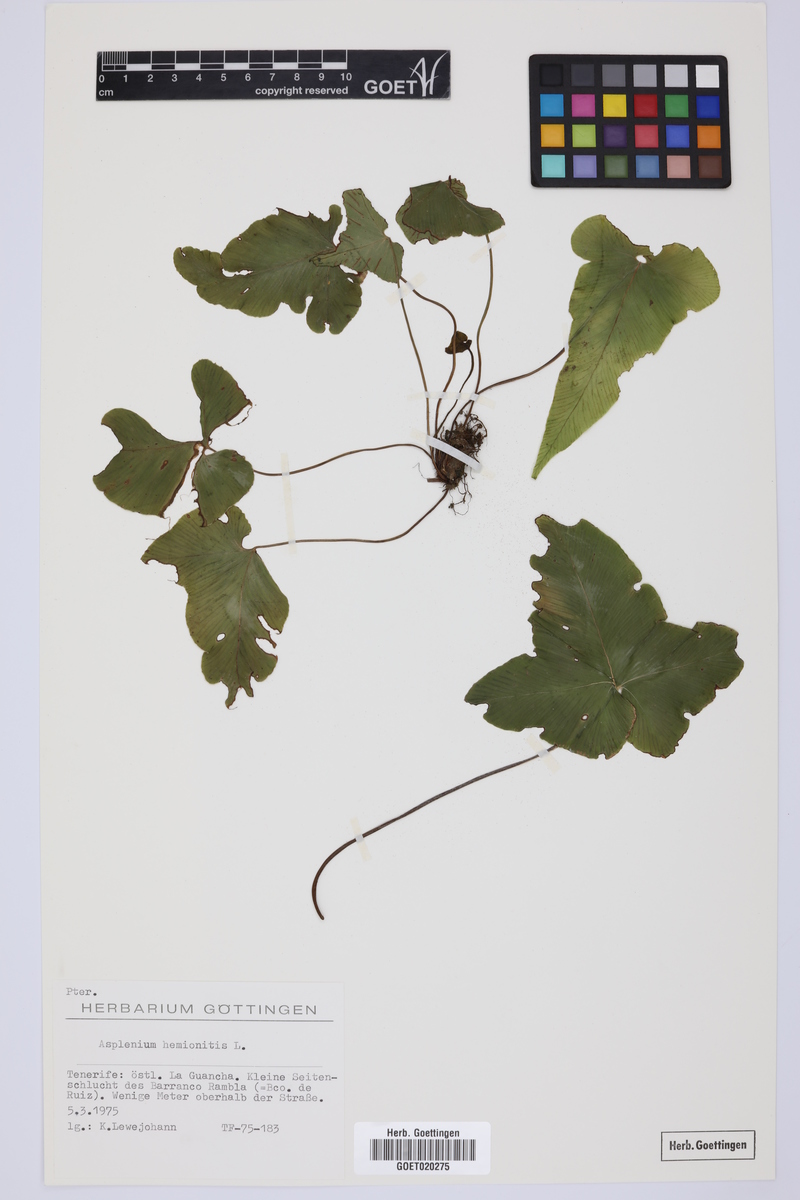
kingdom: Plantae
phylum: Tracheophyta
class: Polypodiopsida
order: Polypodiales
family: Aspleniaceae
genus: Asplenium
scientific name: Asplenium hemionitis
